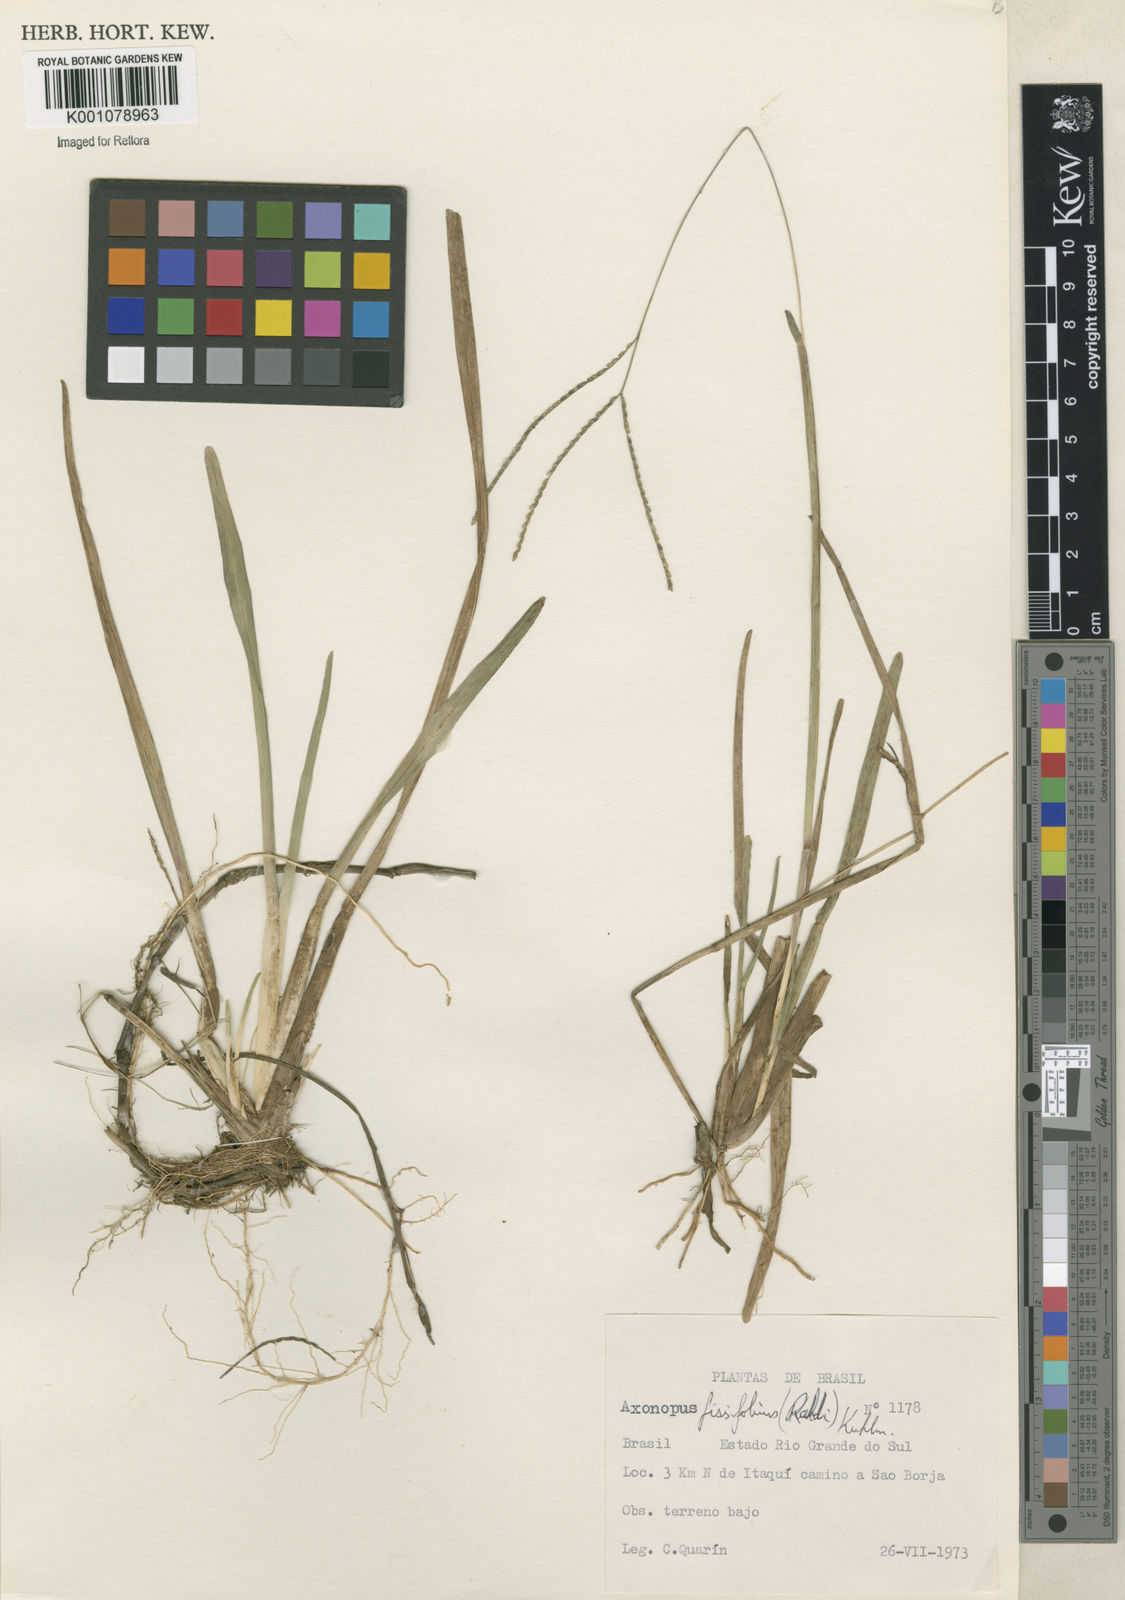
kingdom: Plantae
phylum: Tracheophyta
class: Liliopsida
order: Poales
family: Poaceae
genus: Axonopus
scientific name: Axonopus fissifolius
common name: Common carpetgrass
